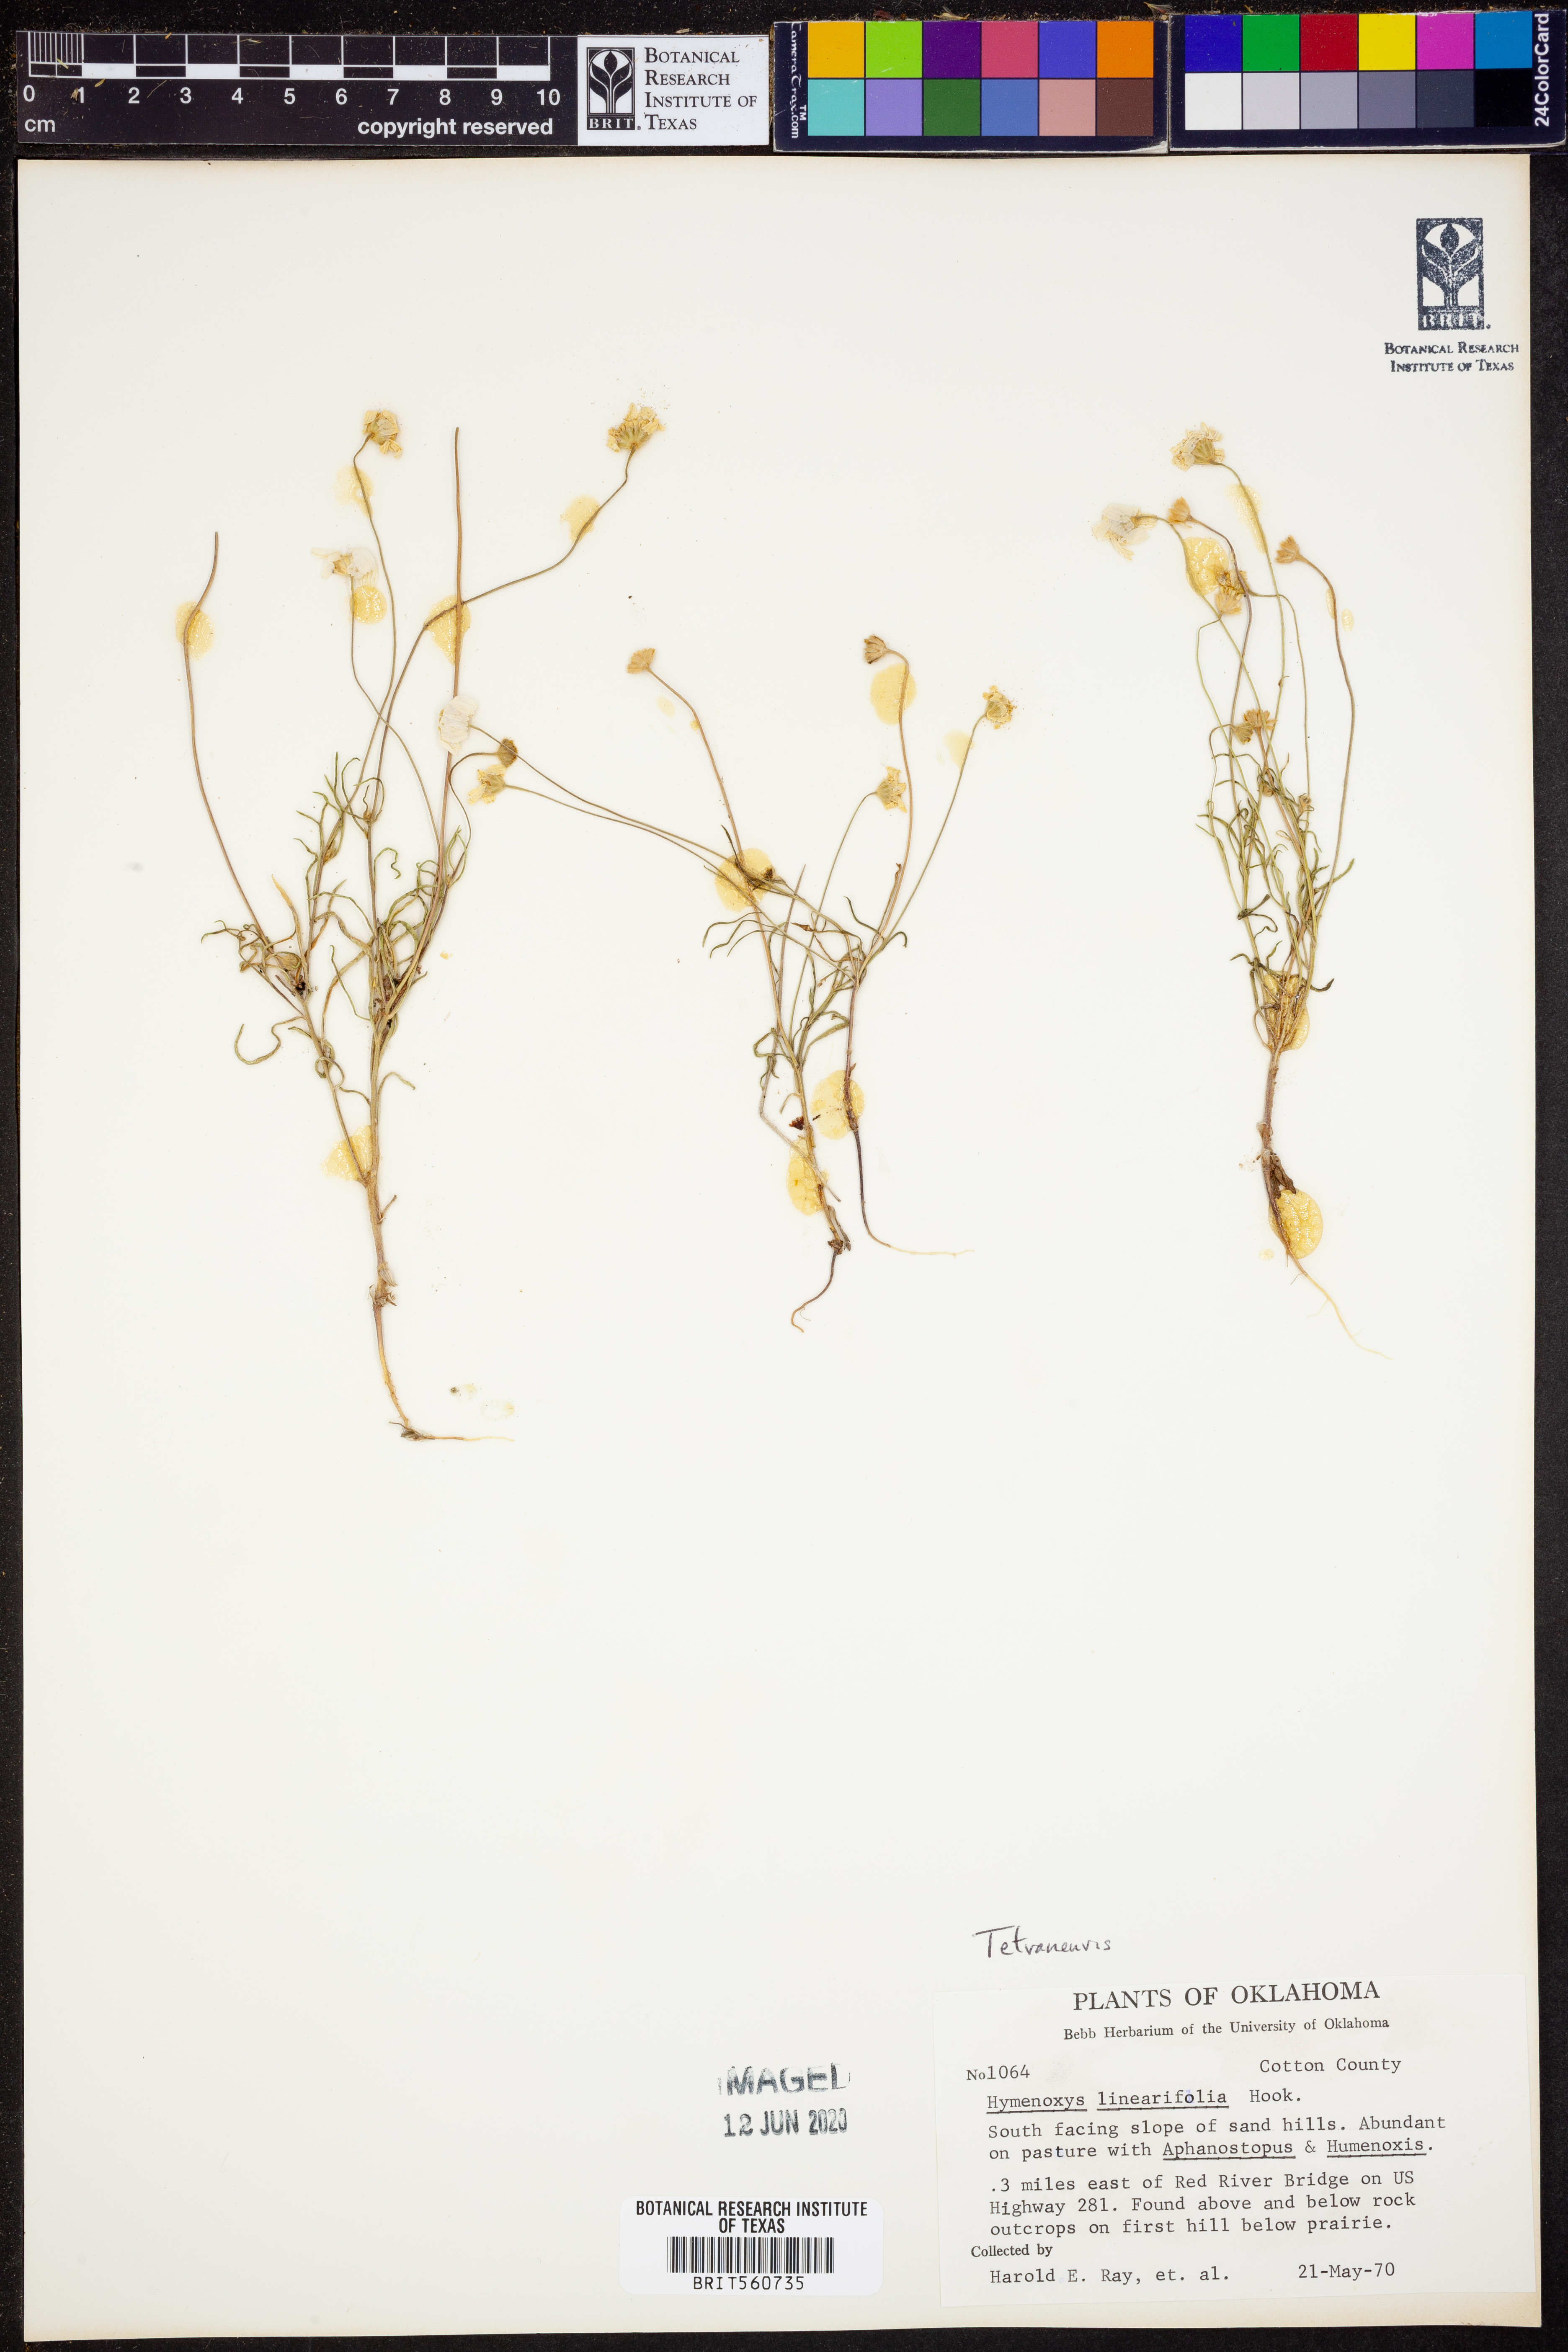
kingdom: Plantae
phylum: Tracheophyta
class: Magnoliopsida
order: Asterales
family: Asteraceae
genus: Tetraneuris
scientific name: Tetraneuris linearifolia
